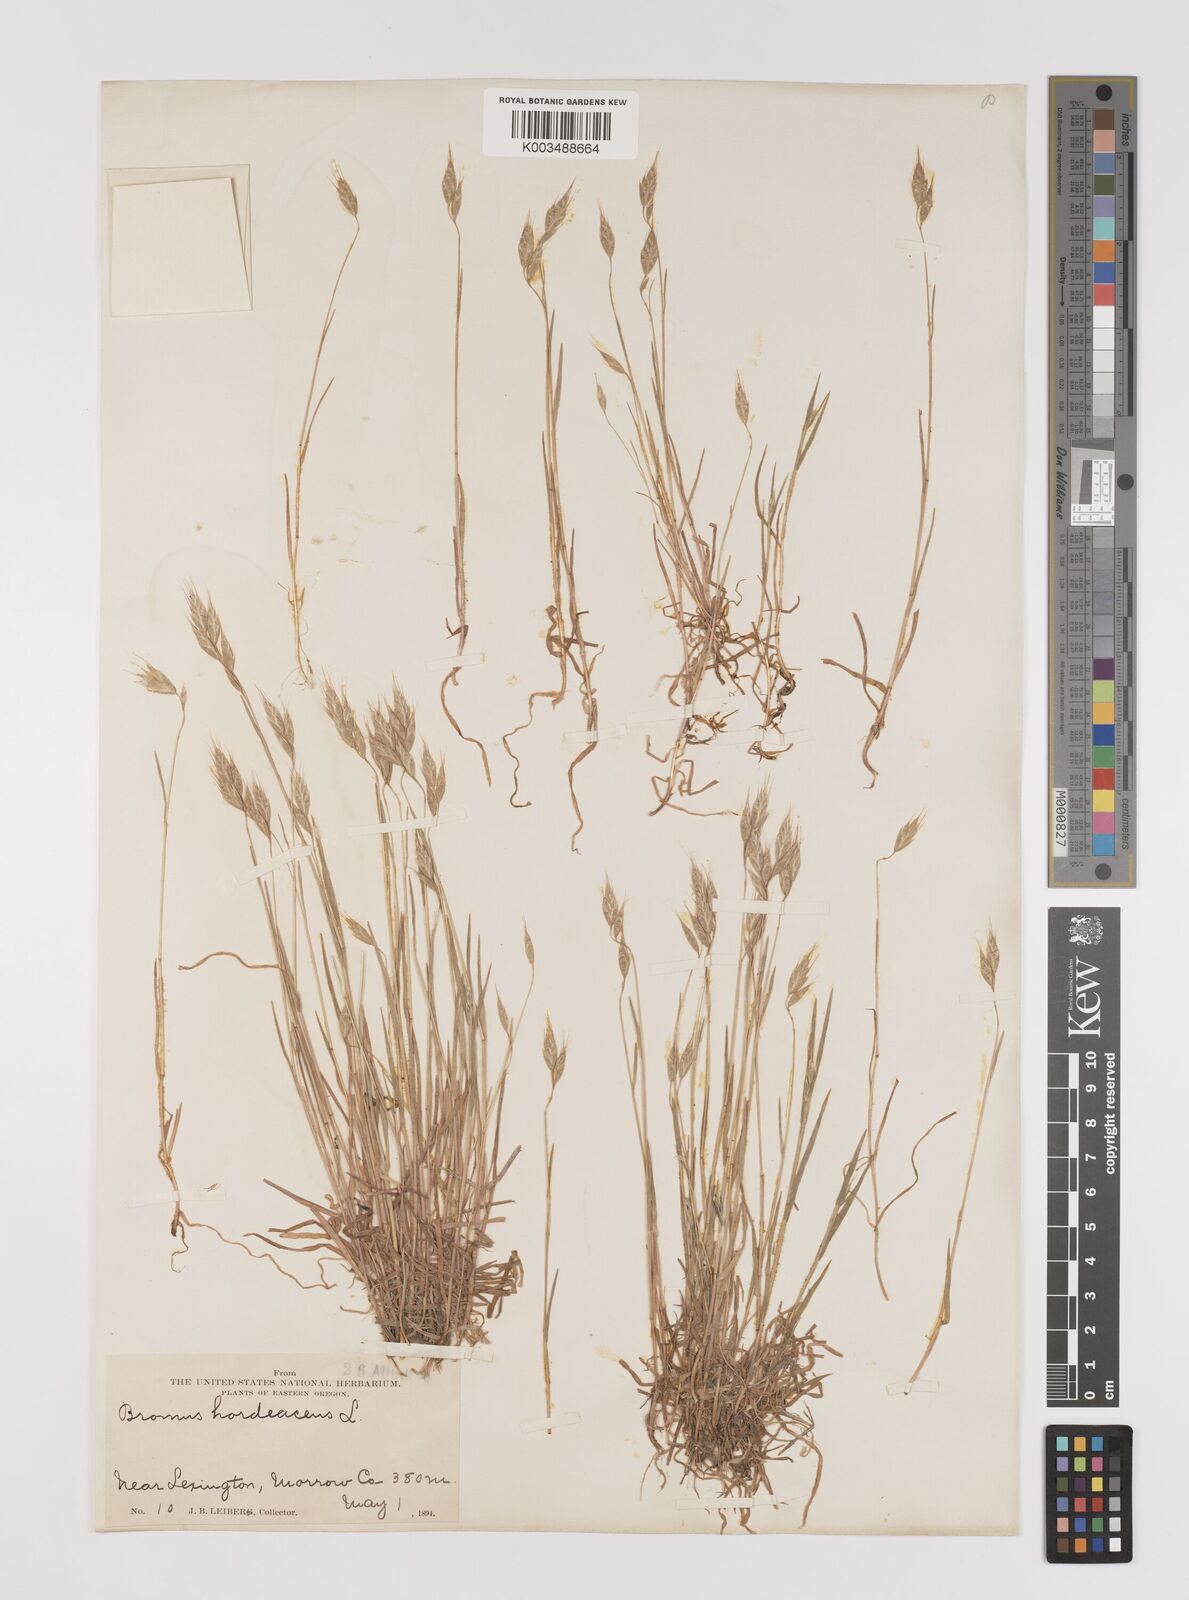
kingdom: Plantae
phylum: Tracheophyta
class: Liliopsida
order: Poales
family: Poaceae
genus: Bromus
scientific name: Bromus hordeaceus
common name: Soft brome
